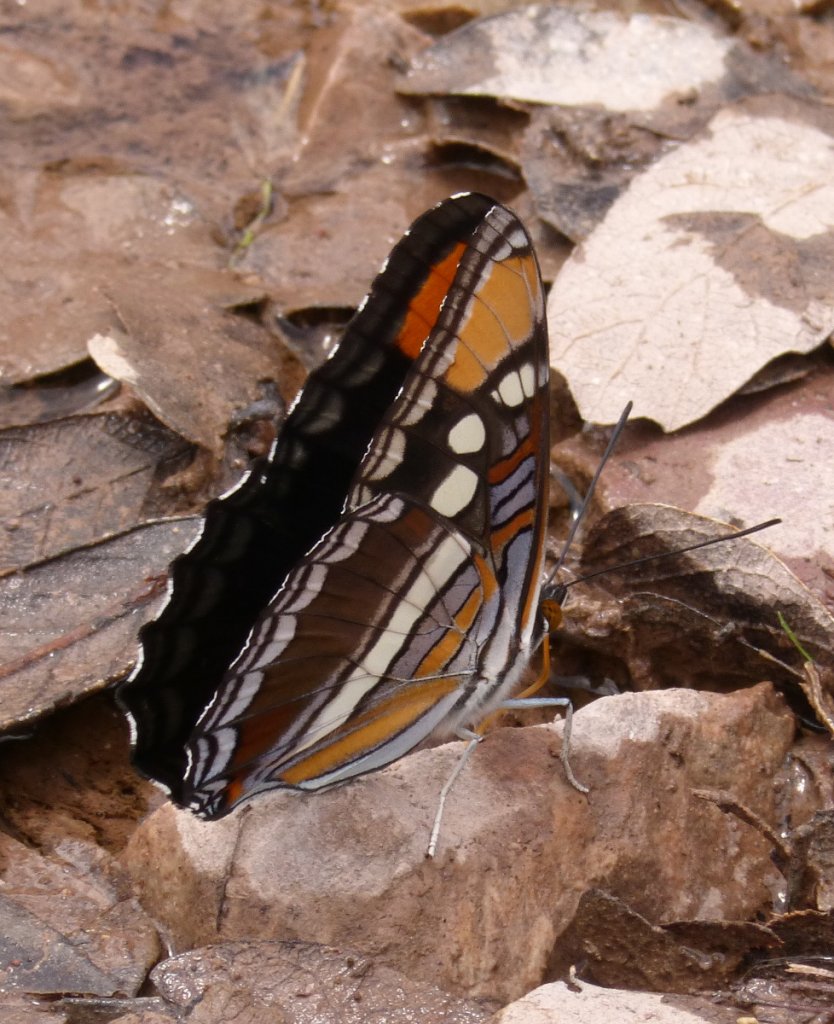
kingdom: Animalia
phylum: Arthropoda
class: Insecta
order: Lepidoptera
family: Nymphalidae
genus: Limenitis
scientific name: Limenitis bredowii
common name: Arizona Sister
